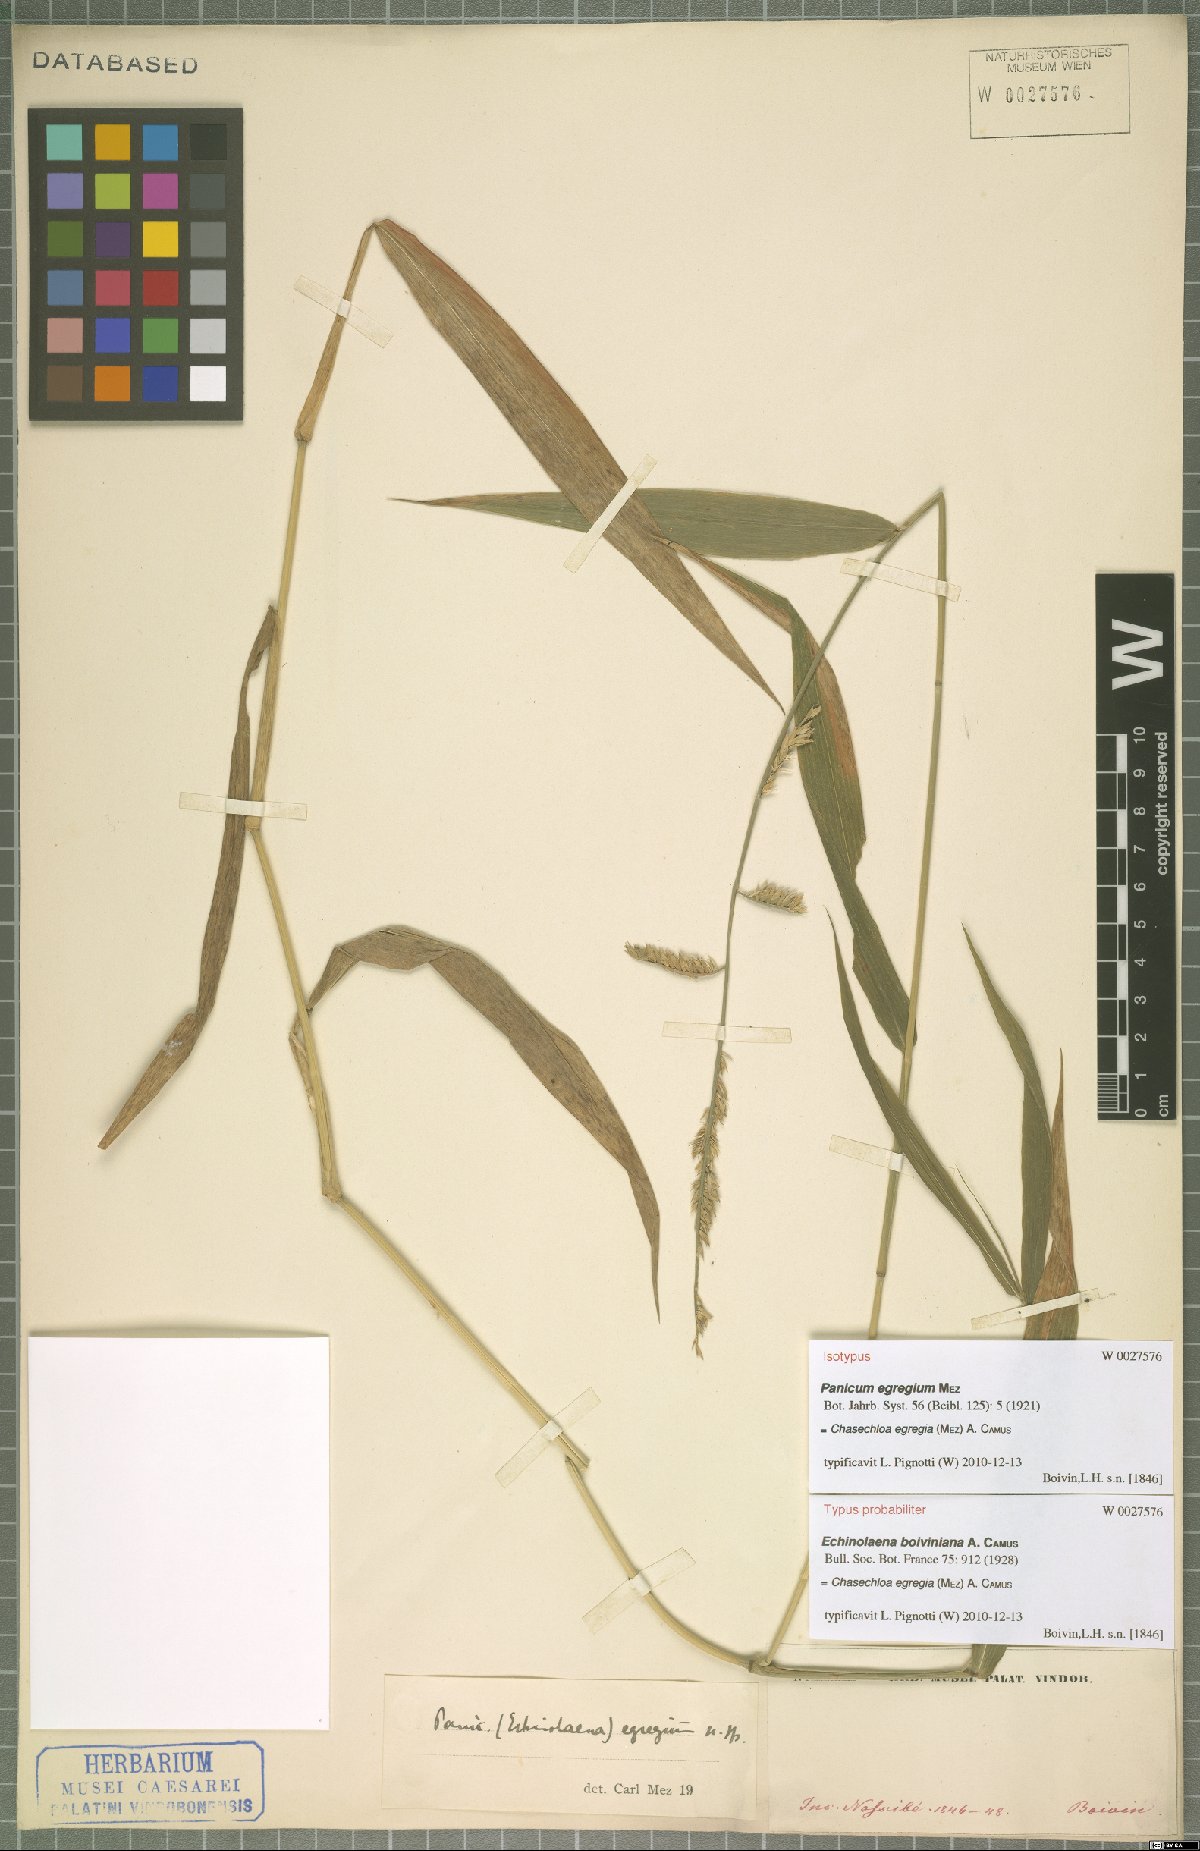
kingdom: Plantae
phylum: Tracheophyta
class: Liliopsida
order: Poales
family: Poaceae
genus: Chasechloa
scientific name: Chasechloa egregia
